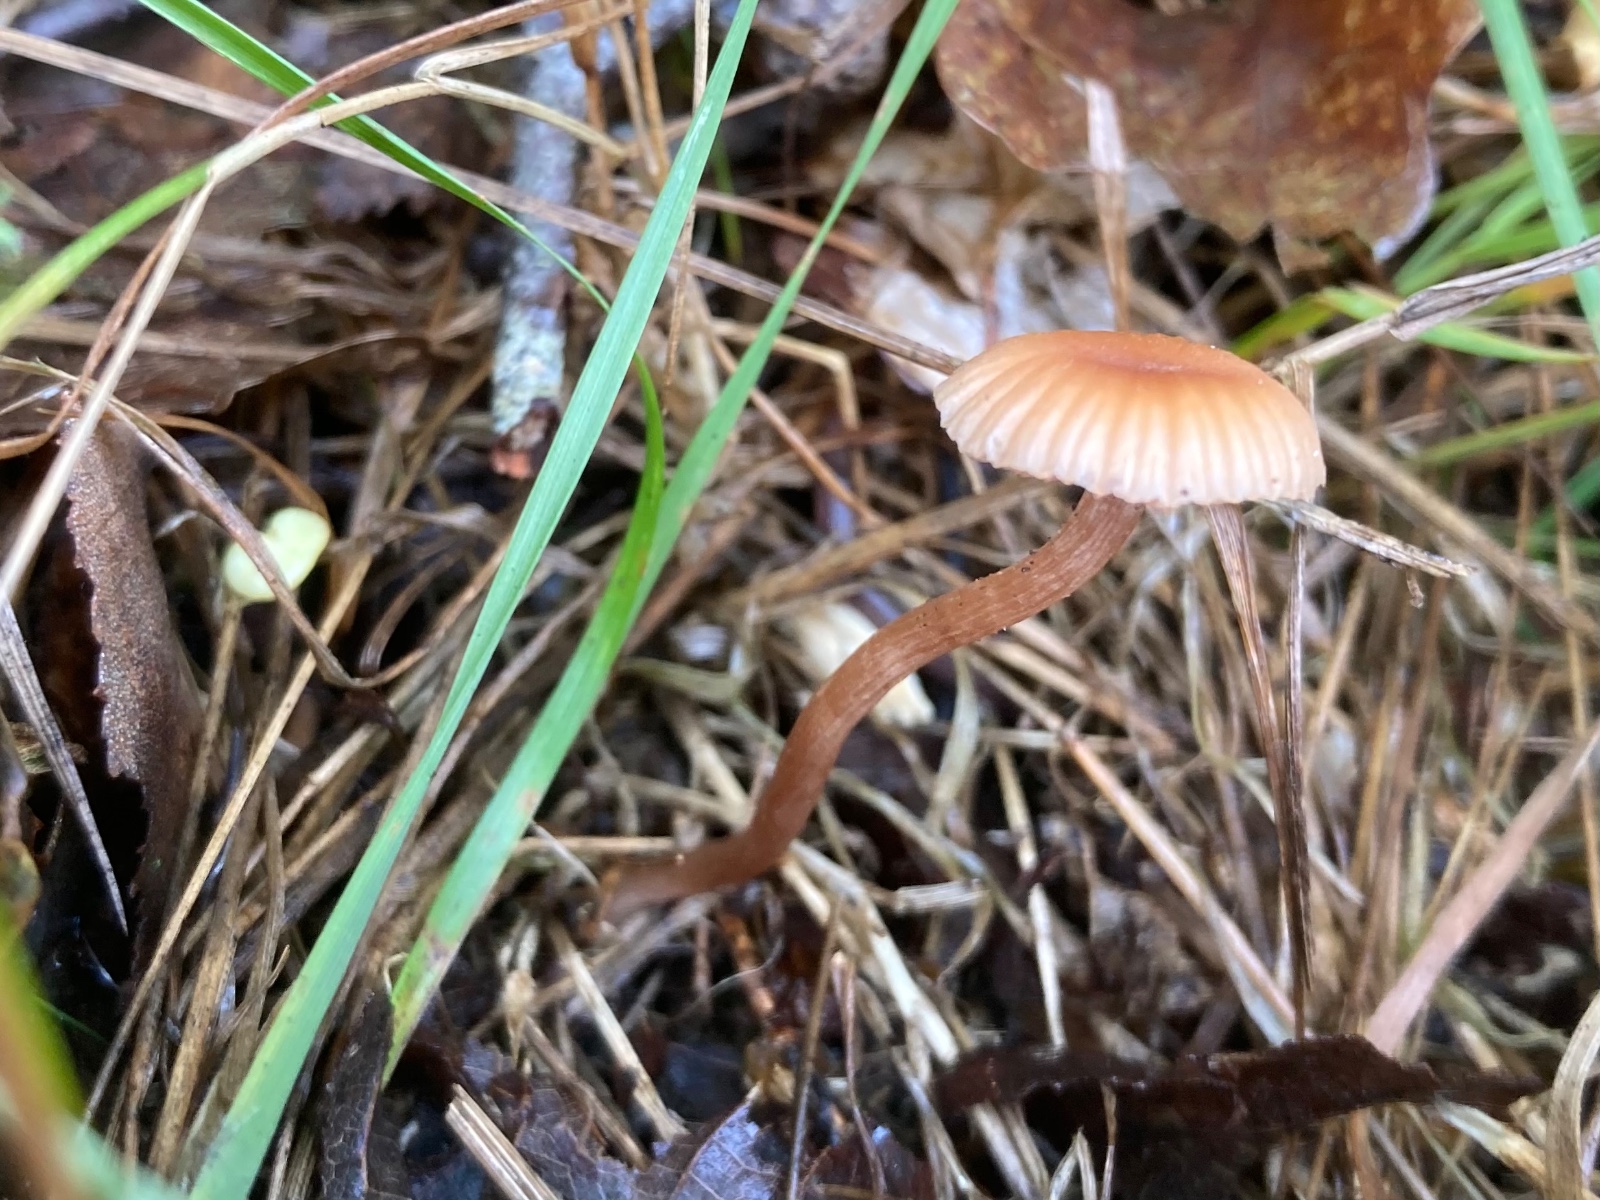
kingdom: Fungi
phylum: Basidiomycota
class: Agaricomycetes
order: Agaricales
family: Hydnangiaceae
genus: Laccaria
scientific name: Laccaria laccata
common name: rød ametysthat
